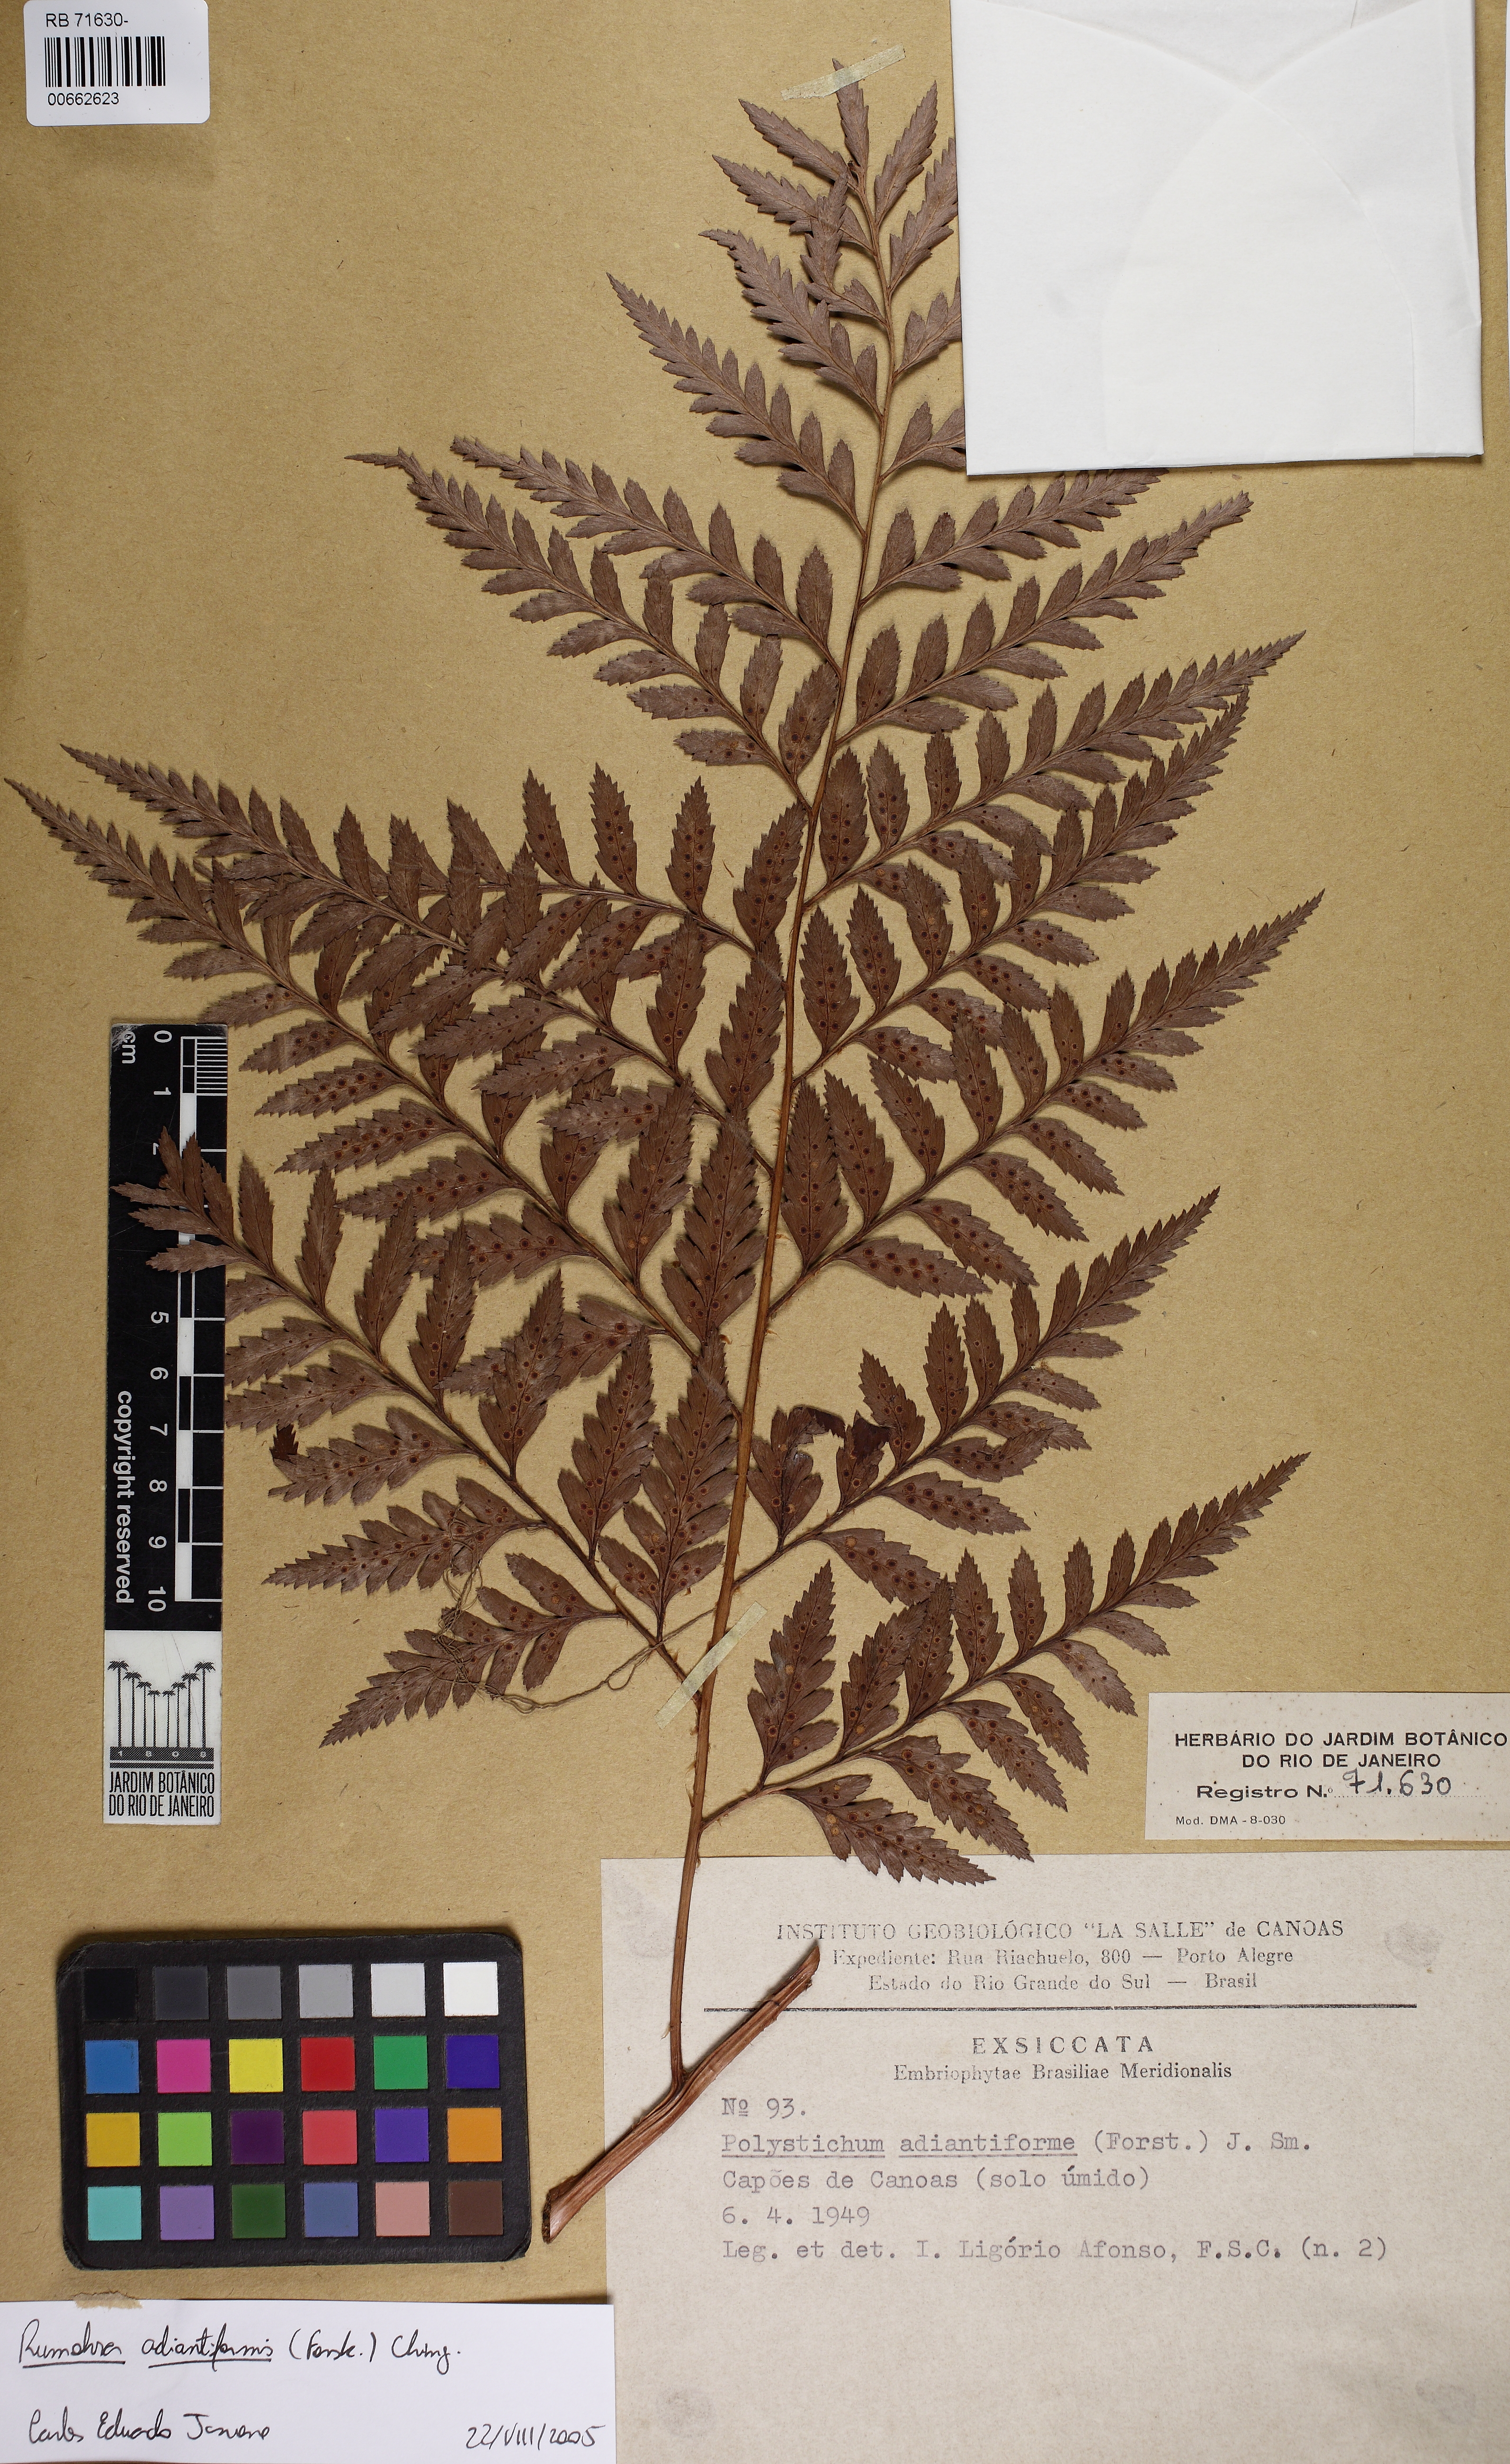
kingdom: Plantae
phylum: Tracheophyta
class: Polypodiopsida
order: Polypodiales
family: Dryopteridaceae
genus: Rumohra
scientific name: Rumohra adiantiformis
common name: Leather fern
